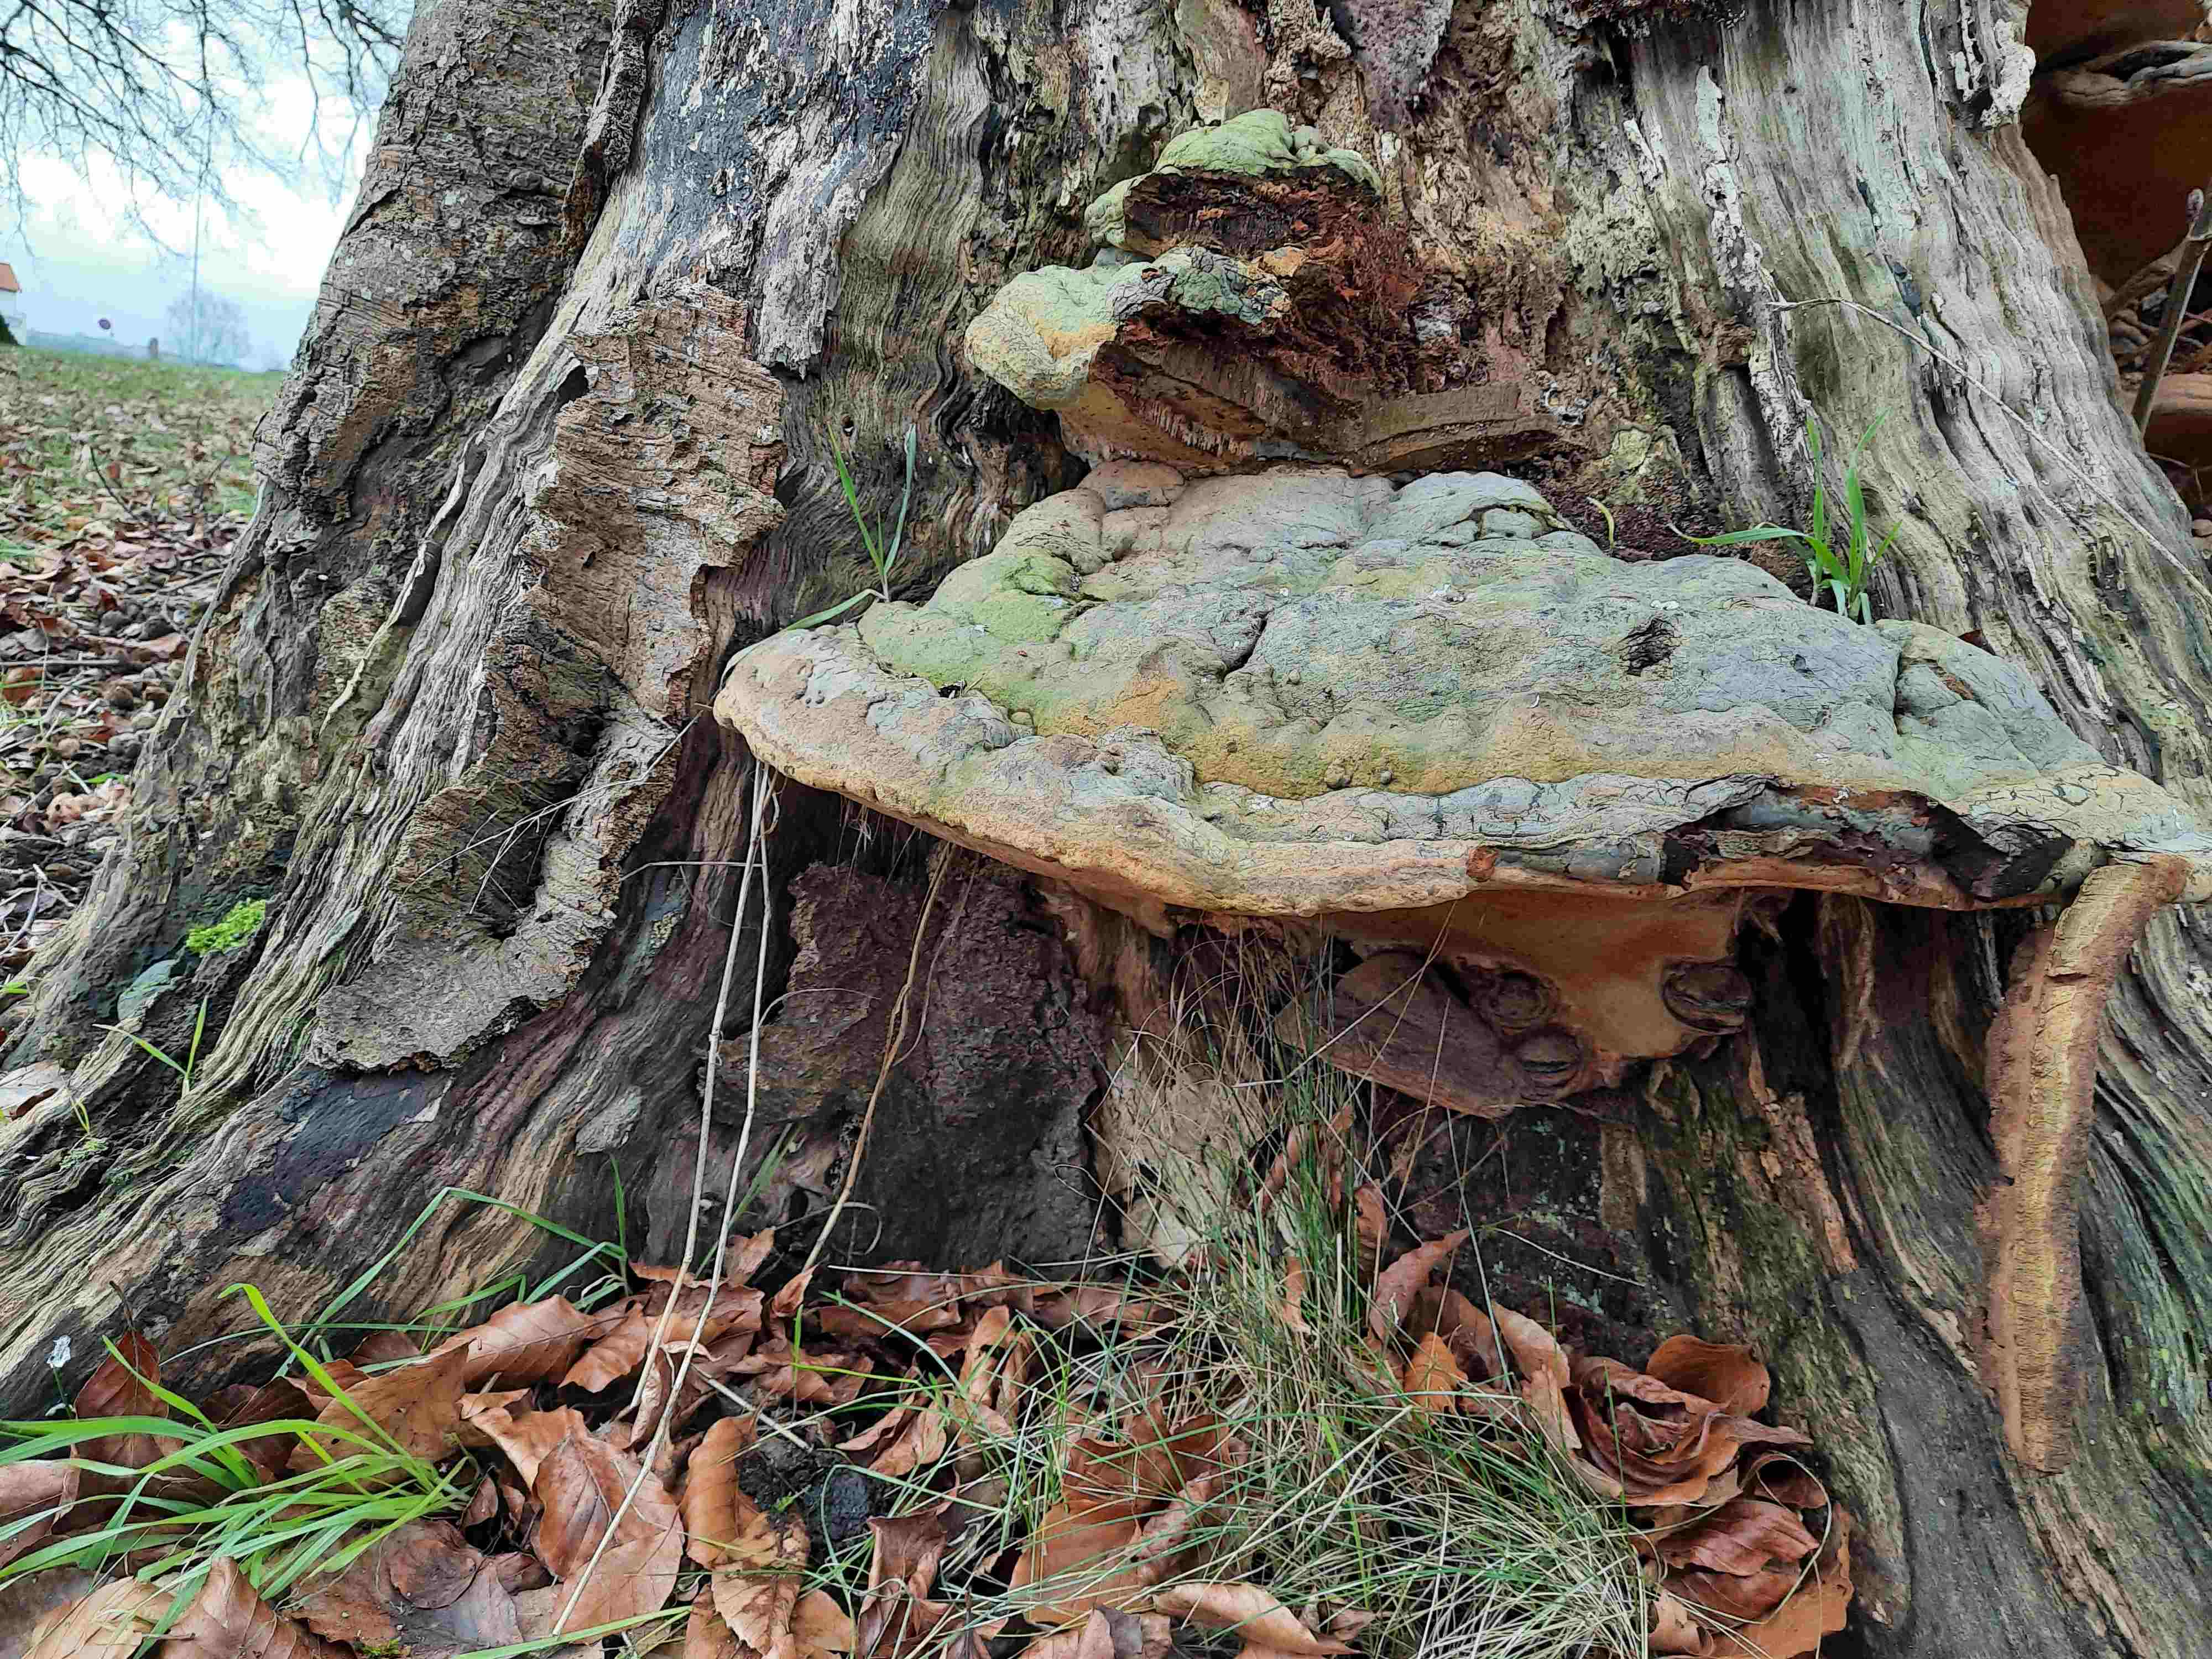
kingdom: Fungi
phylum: Basidiomycota
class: Agaricomycetes
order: Polyporales
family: Polyporaceae
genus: Ganoderma
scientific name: Ganoderma pfeifferi
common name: kobberrød lakporesvamp
